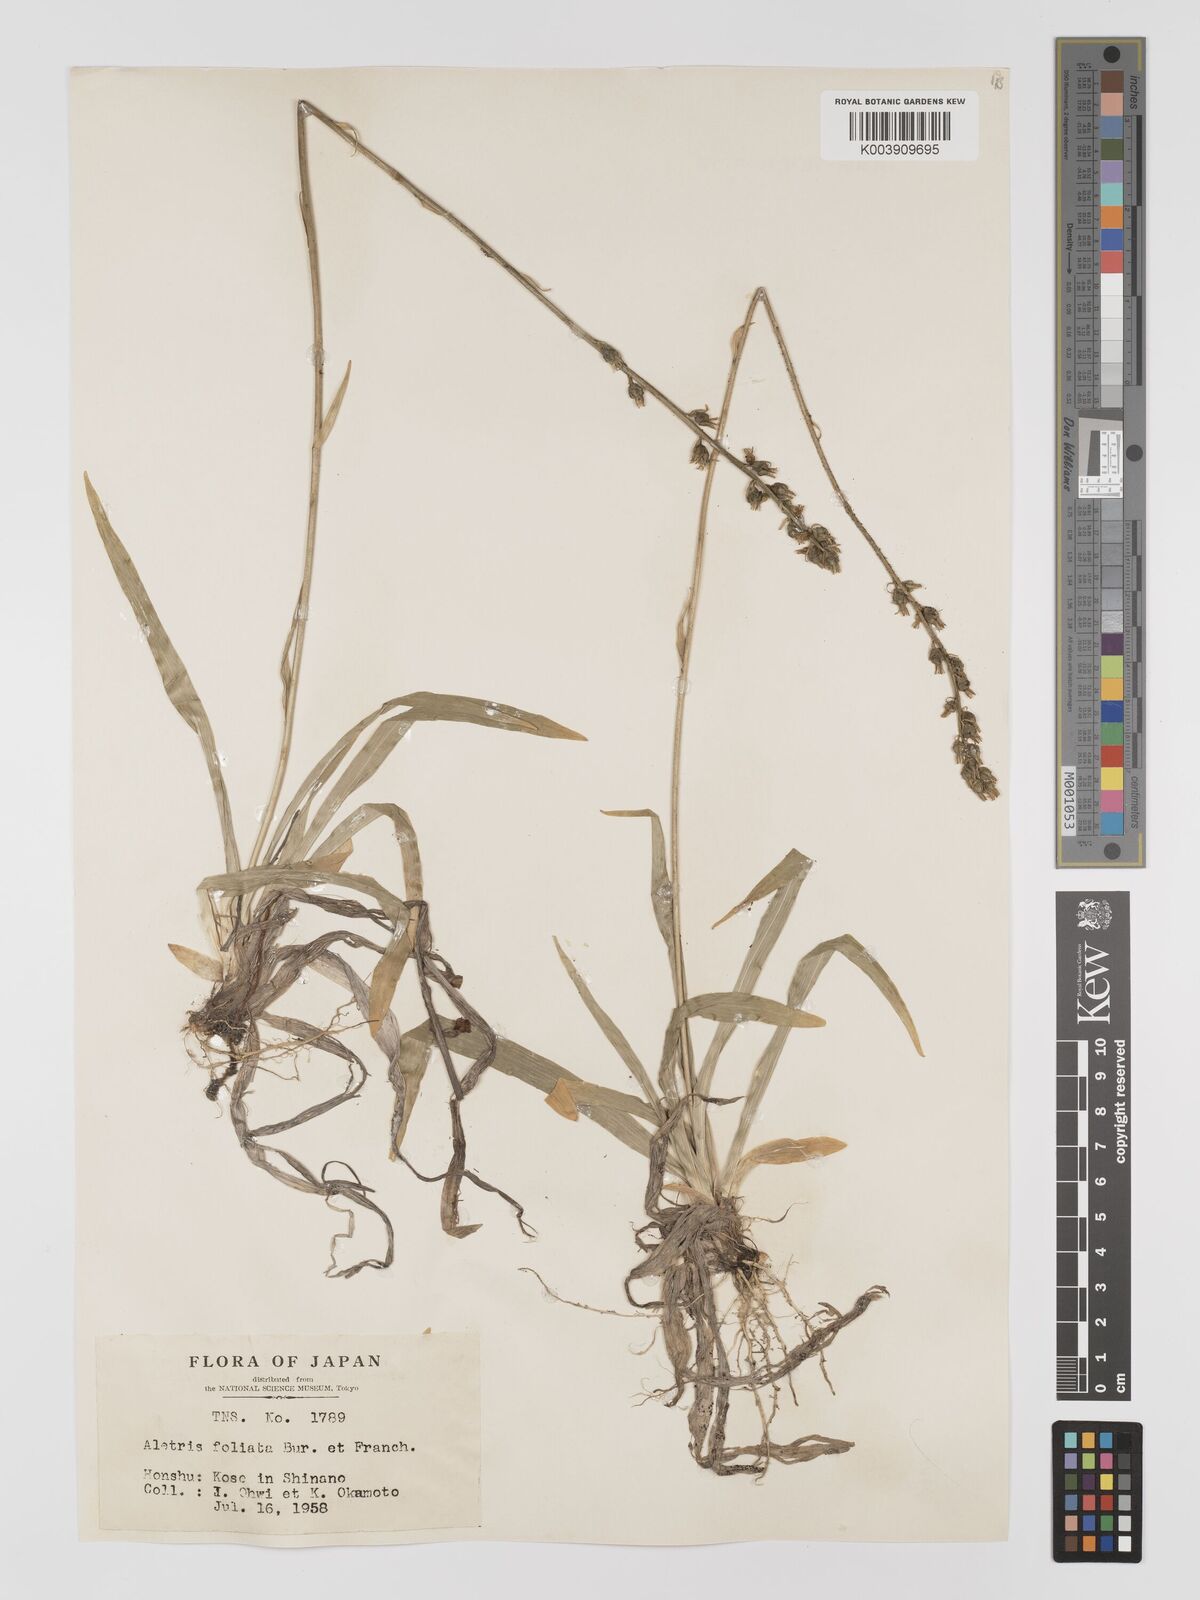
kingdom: Plantae
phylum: Tracheophyta
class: Liliopsida
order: Dioscoreales
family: Nartheciaceae
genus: Aletris
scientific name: Aletris foliata
